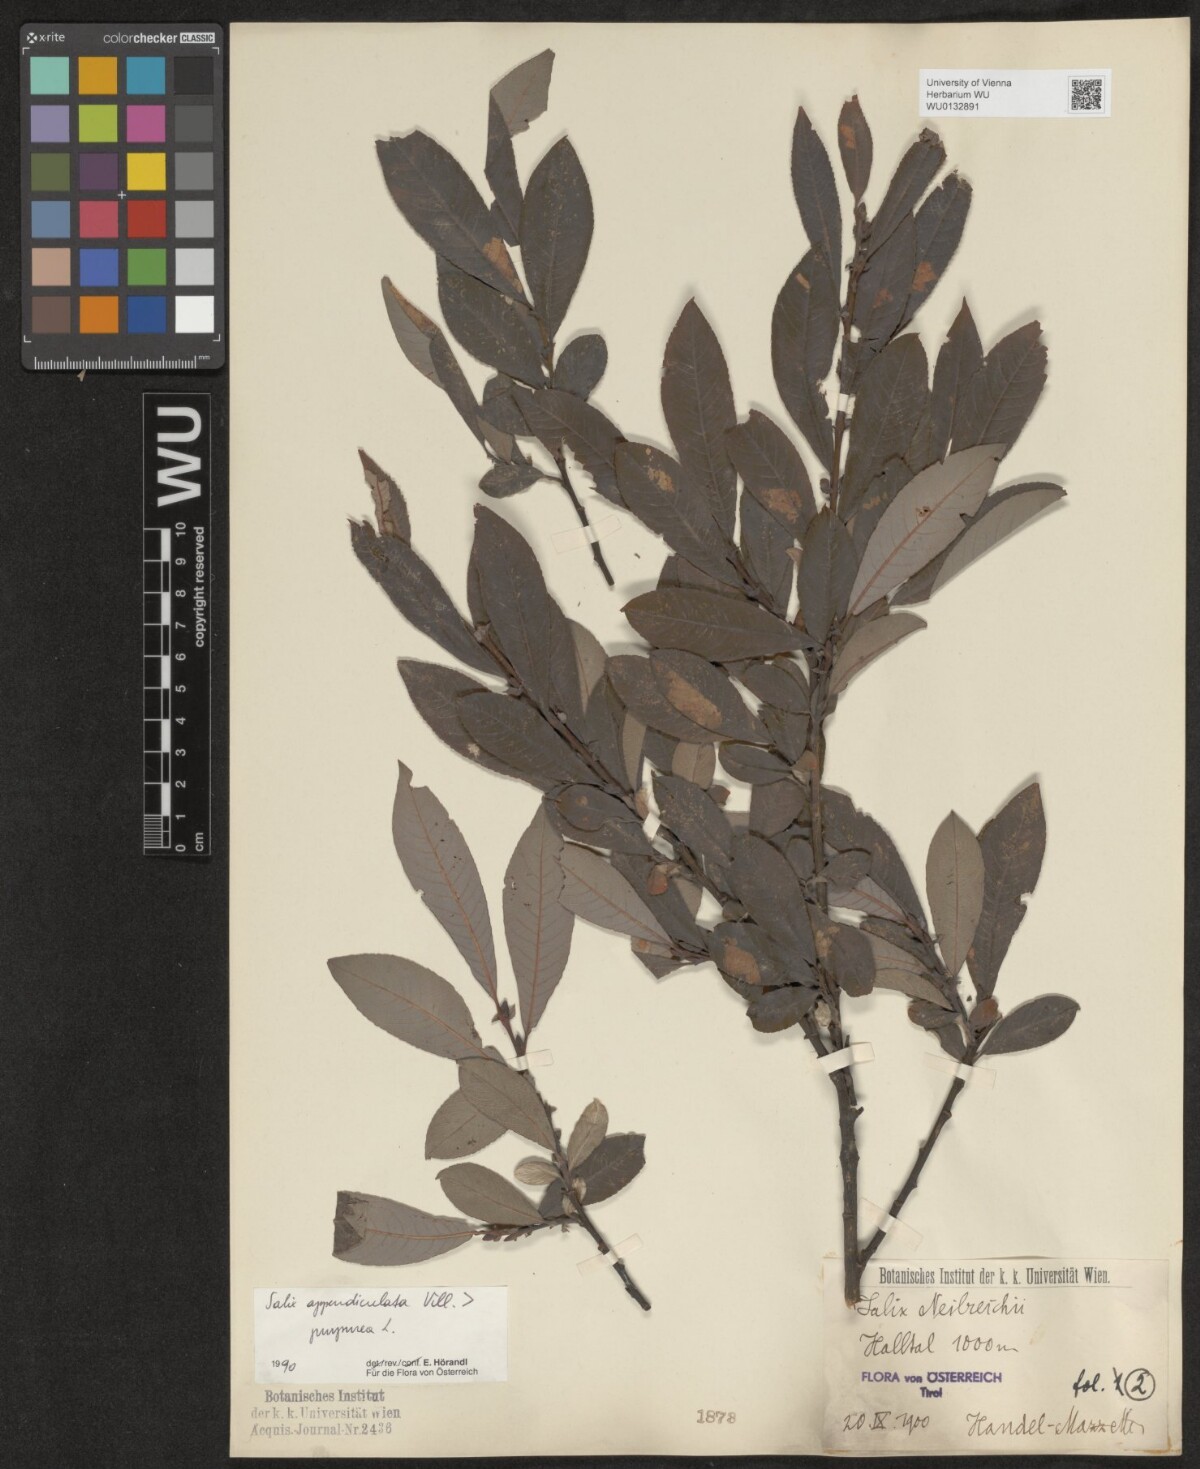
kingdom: Plantae
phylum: Tracheophyta
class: Magnoliopsida
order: Malpighiales
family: Salicaceae
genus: Salix
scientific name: Salix austriaca
